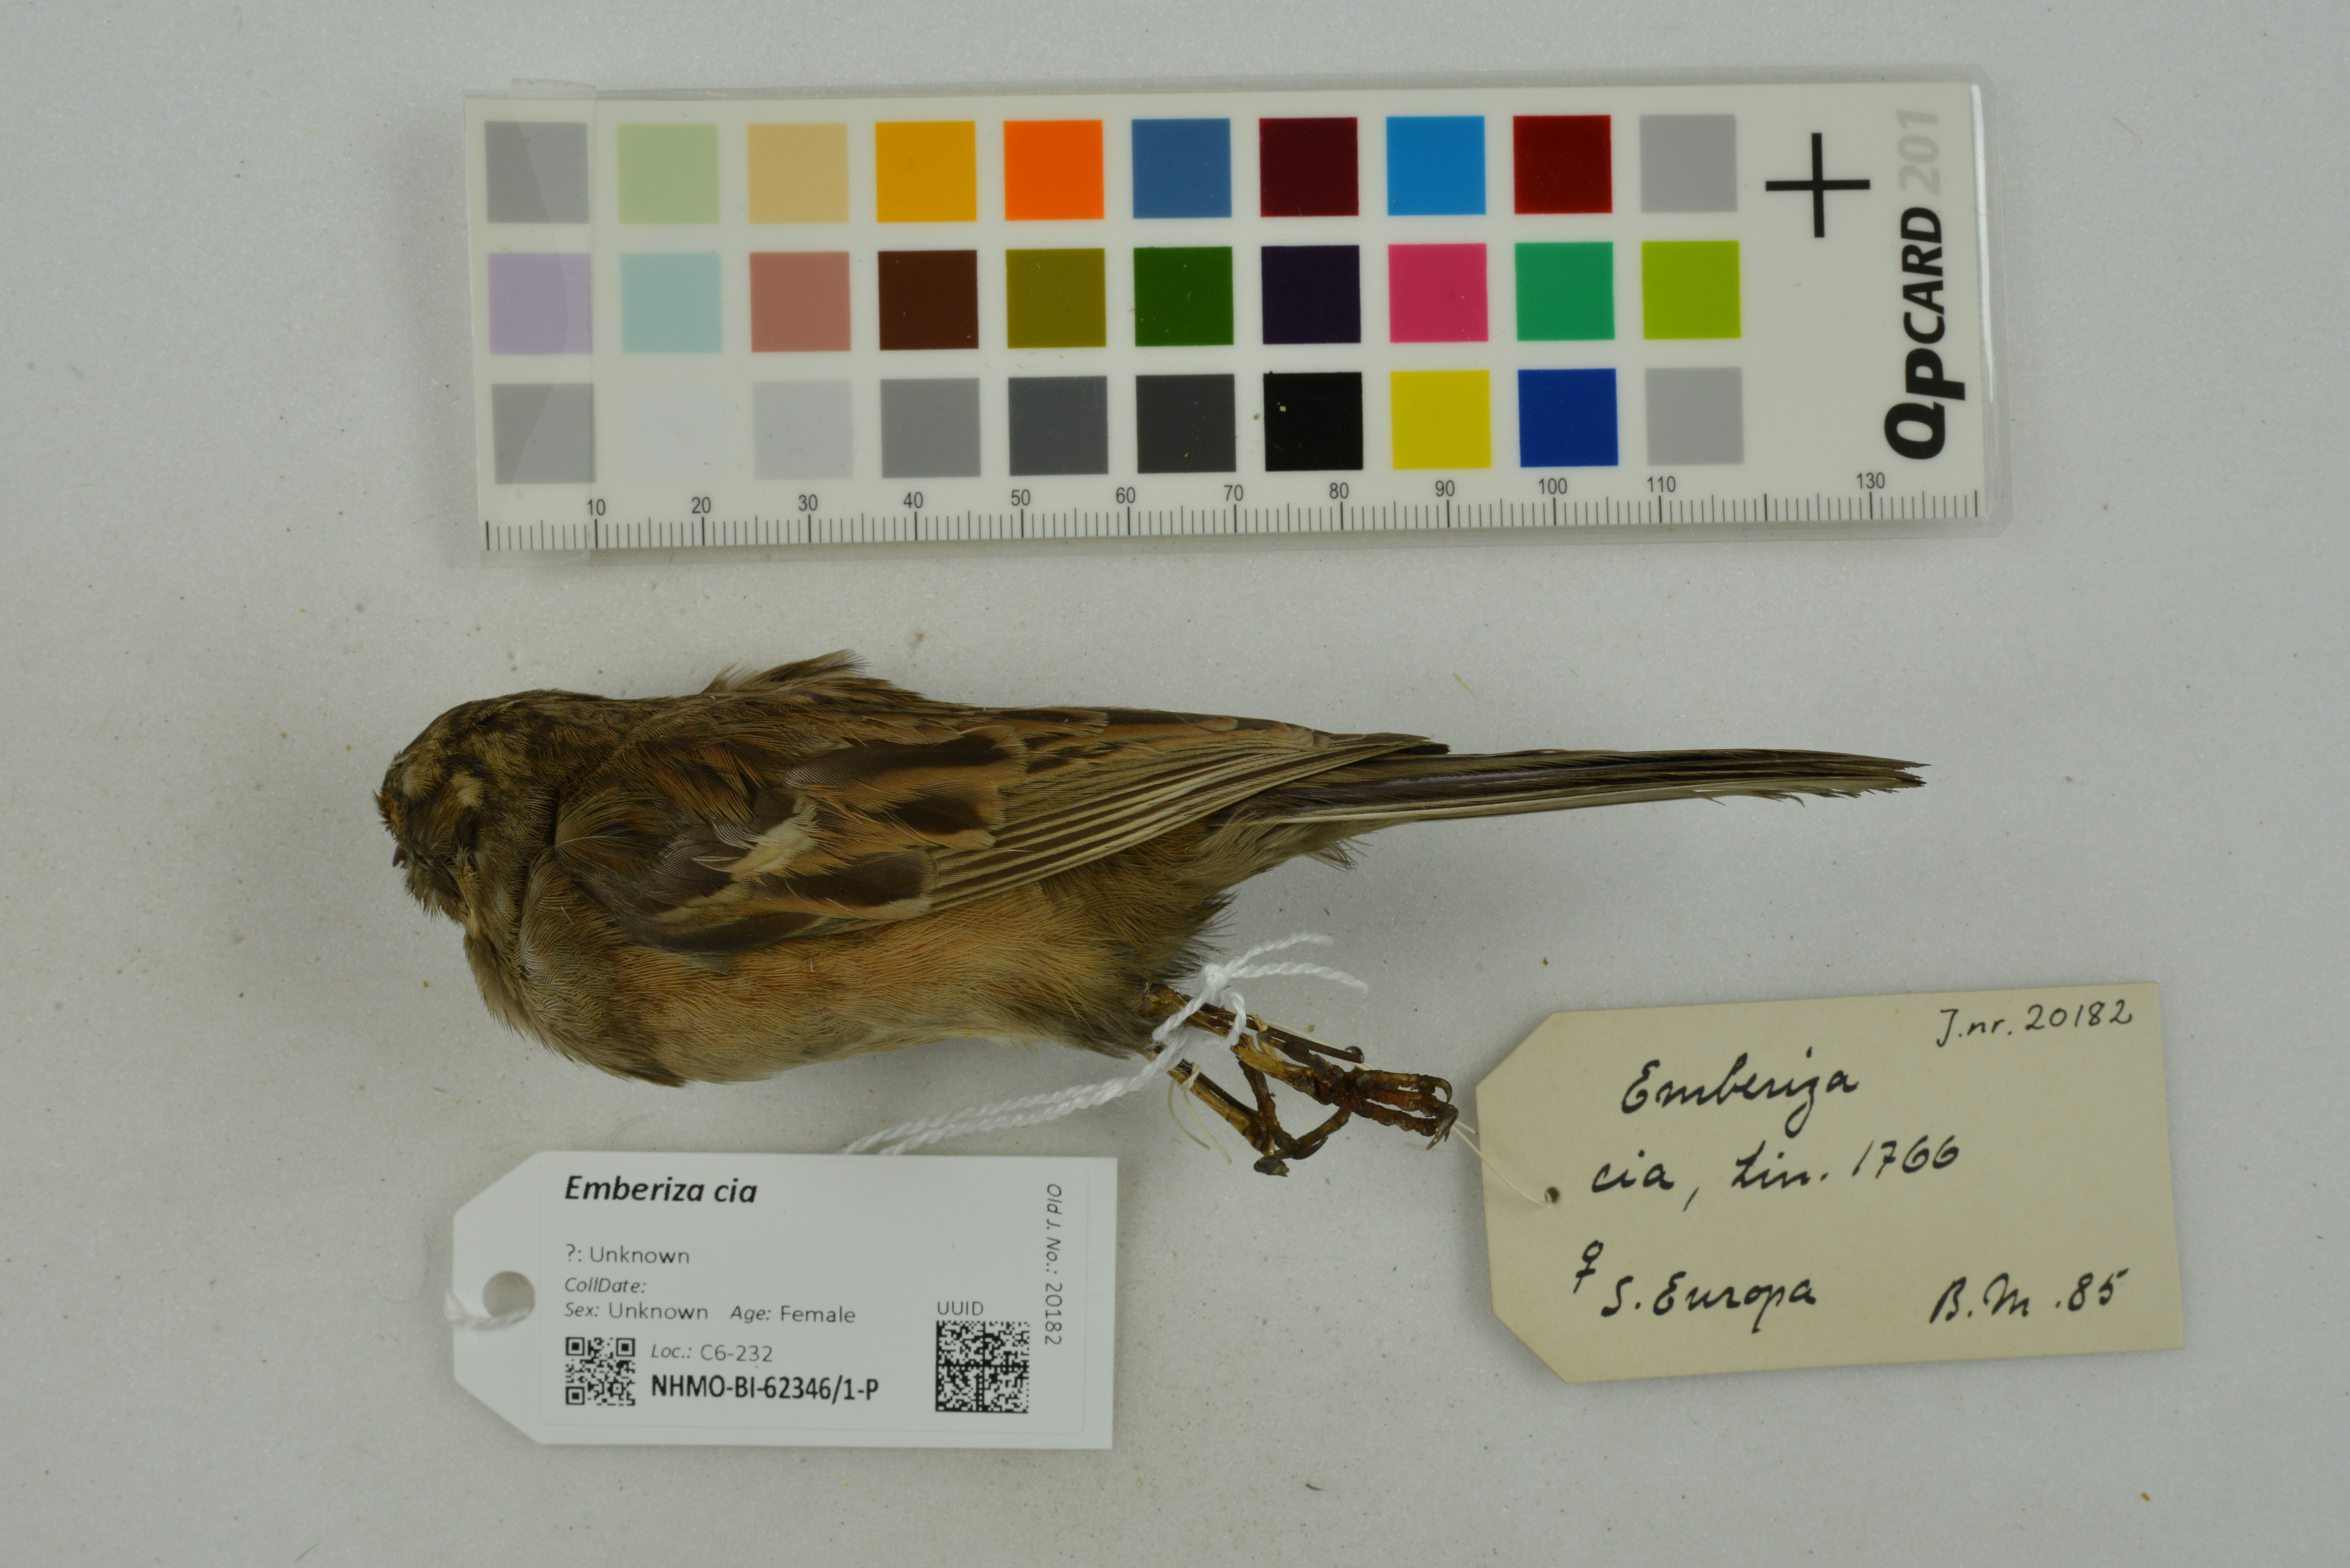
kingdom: Animalia
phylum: Chordata
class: Aves
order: Passeriformes
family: Emberizidae
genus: Emberiza
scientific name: Emberiza cia
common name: Rock bunting
